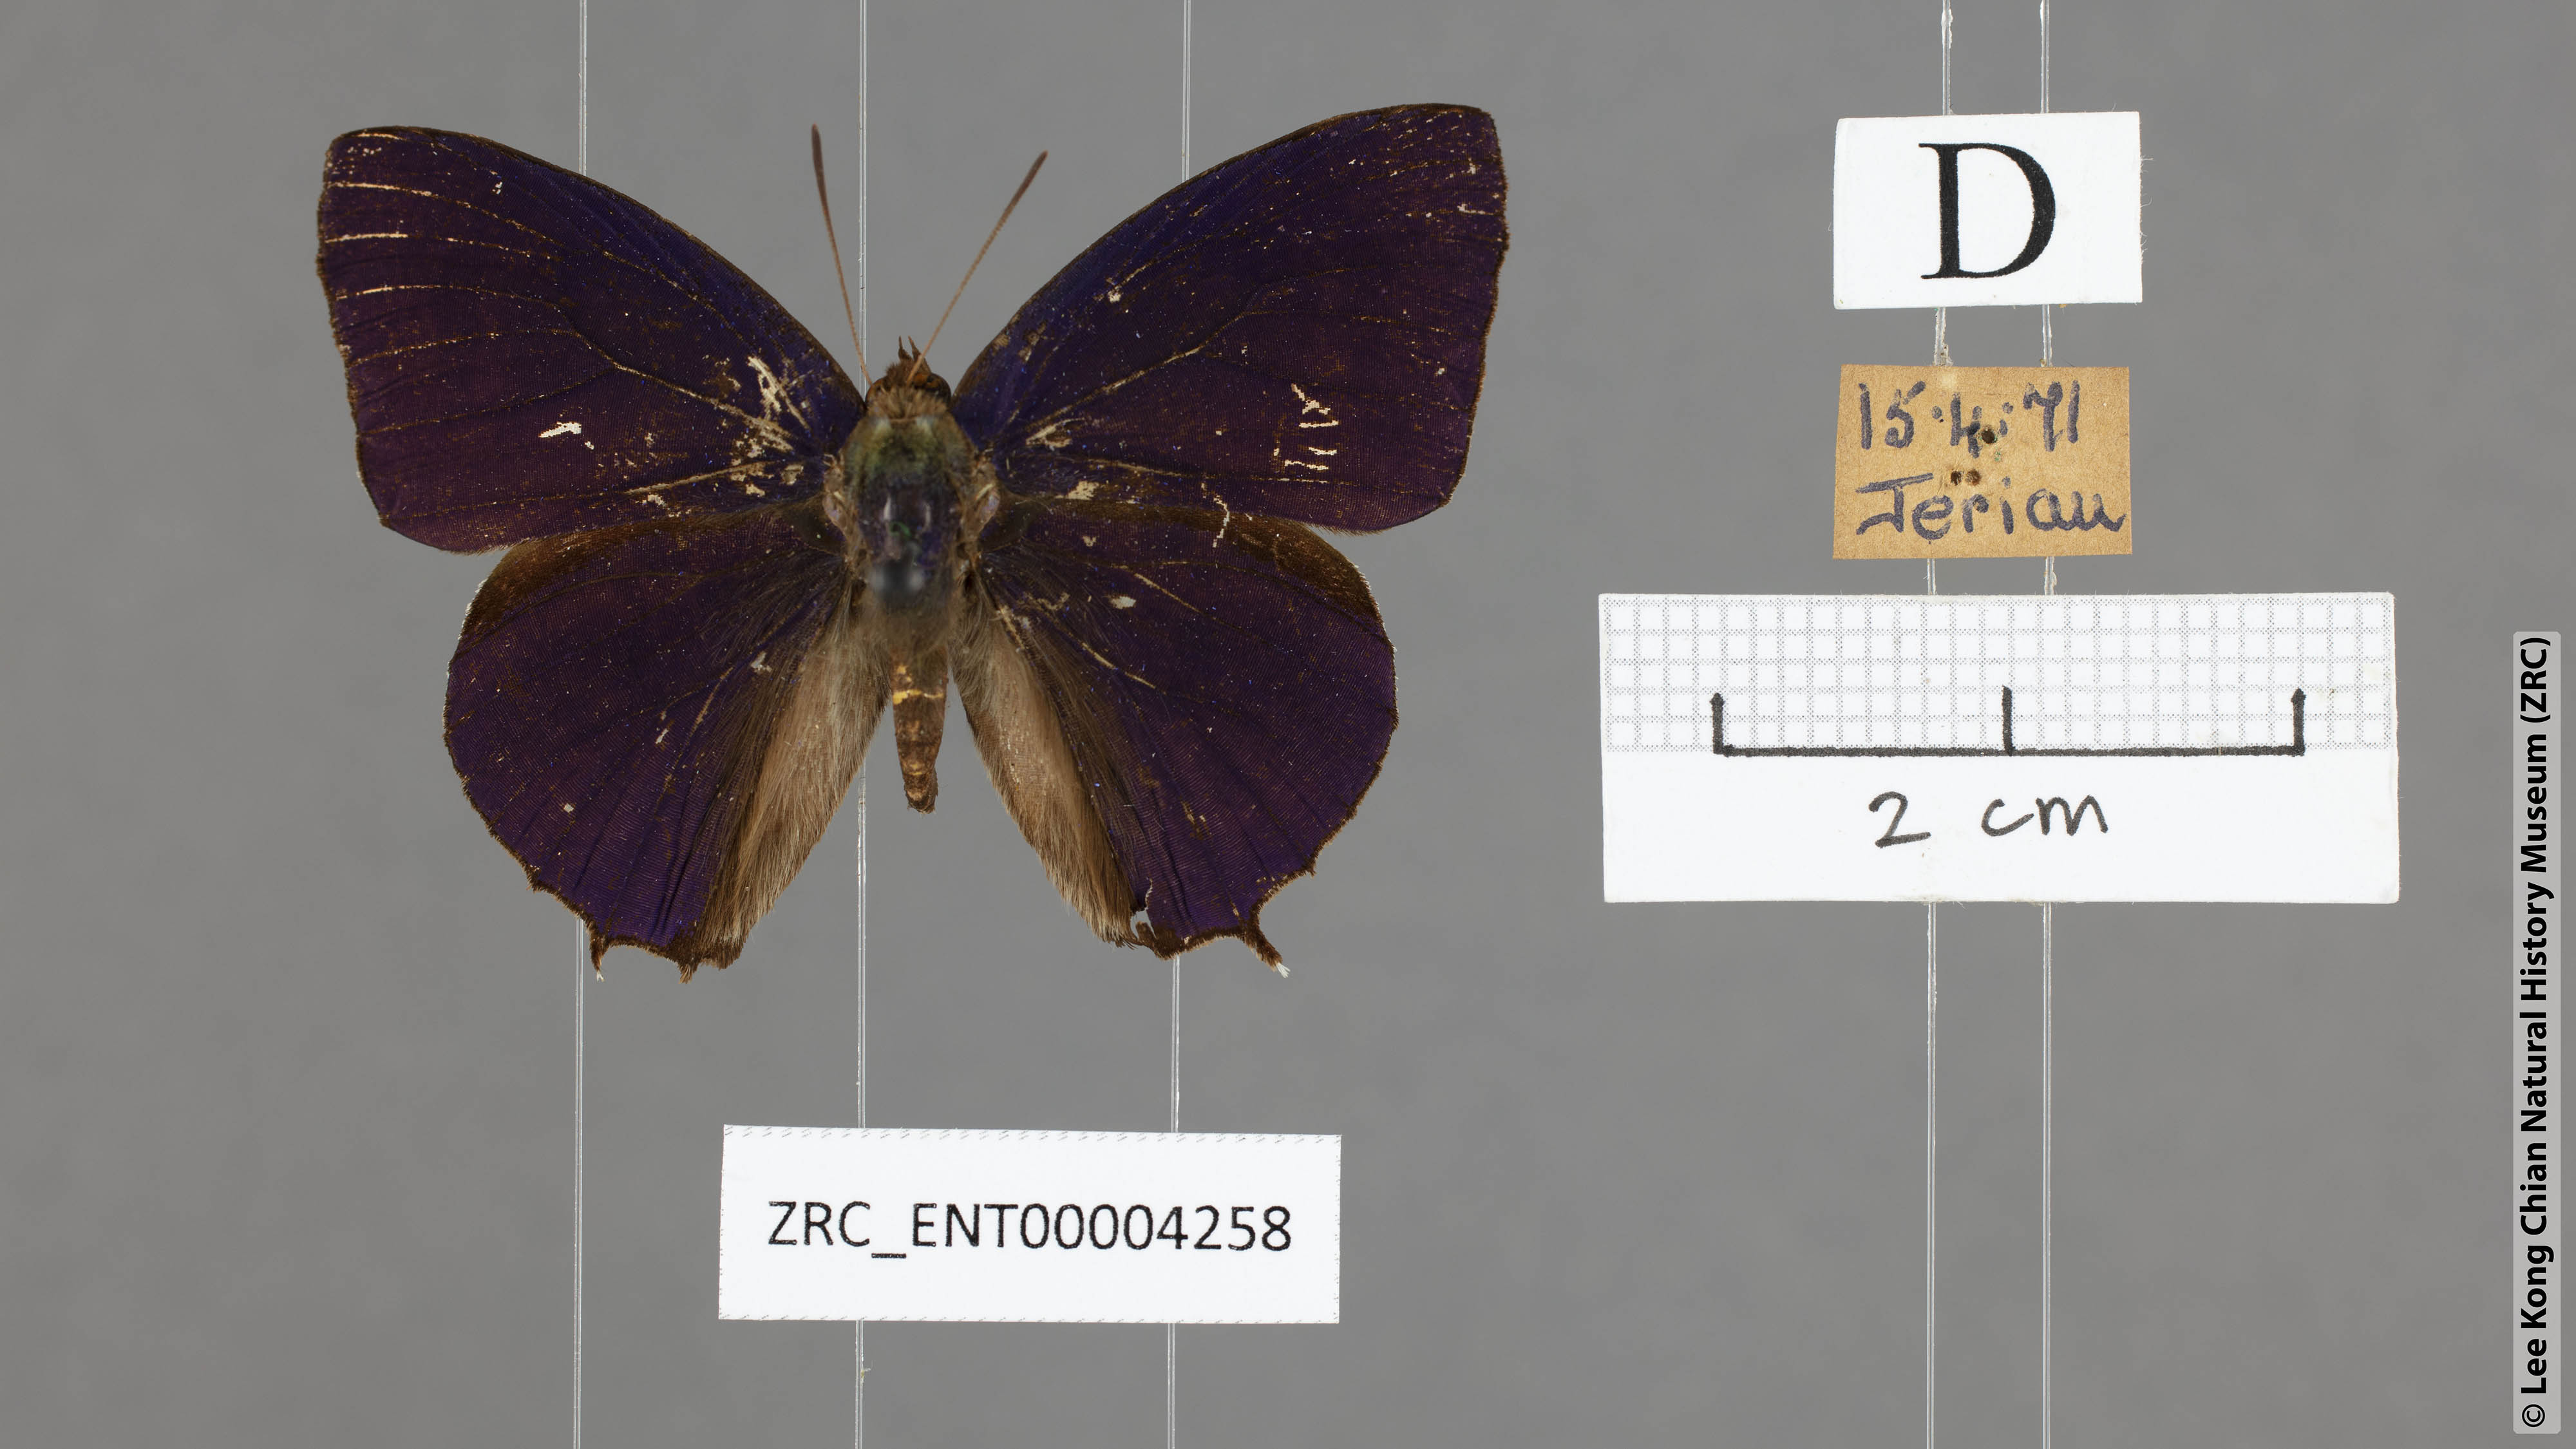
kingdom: Animalia
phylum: Arthropoda
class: Insecta
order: Lepidoptera
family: Lycaenidae
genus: Flos
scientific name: Flos
